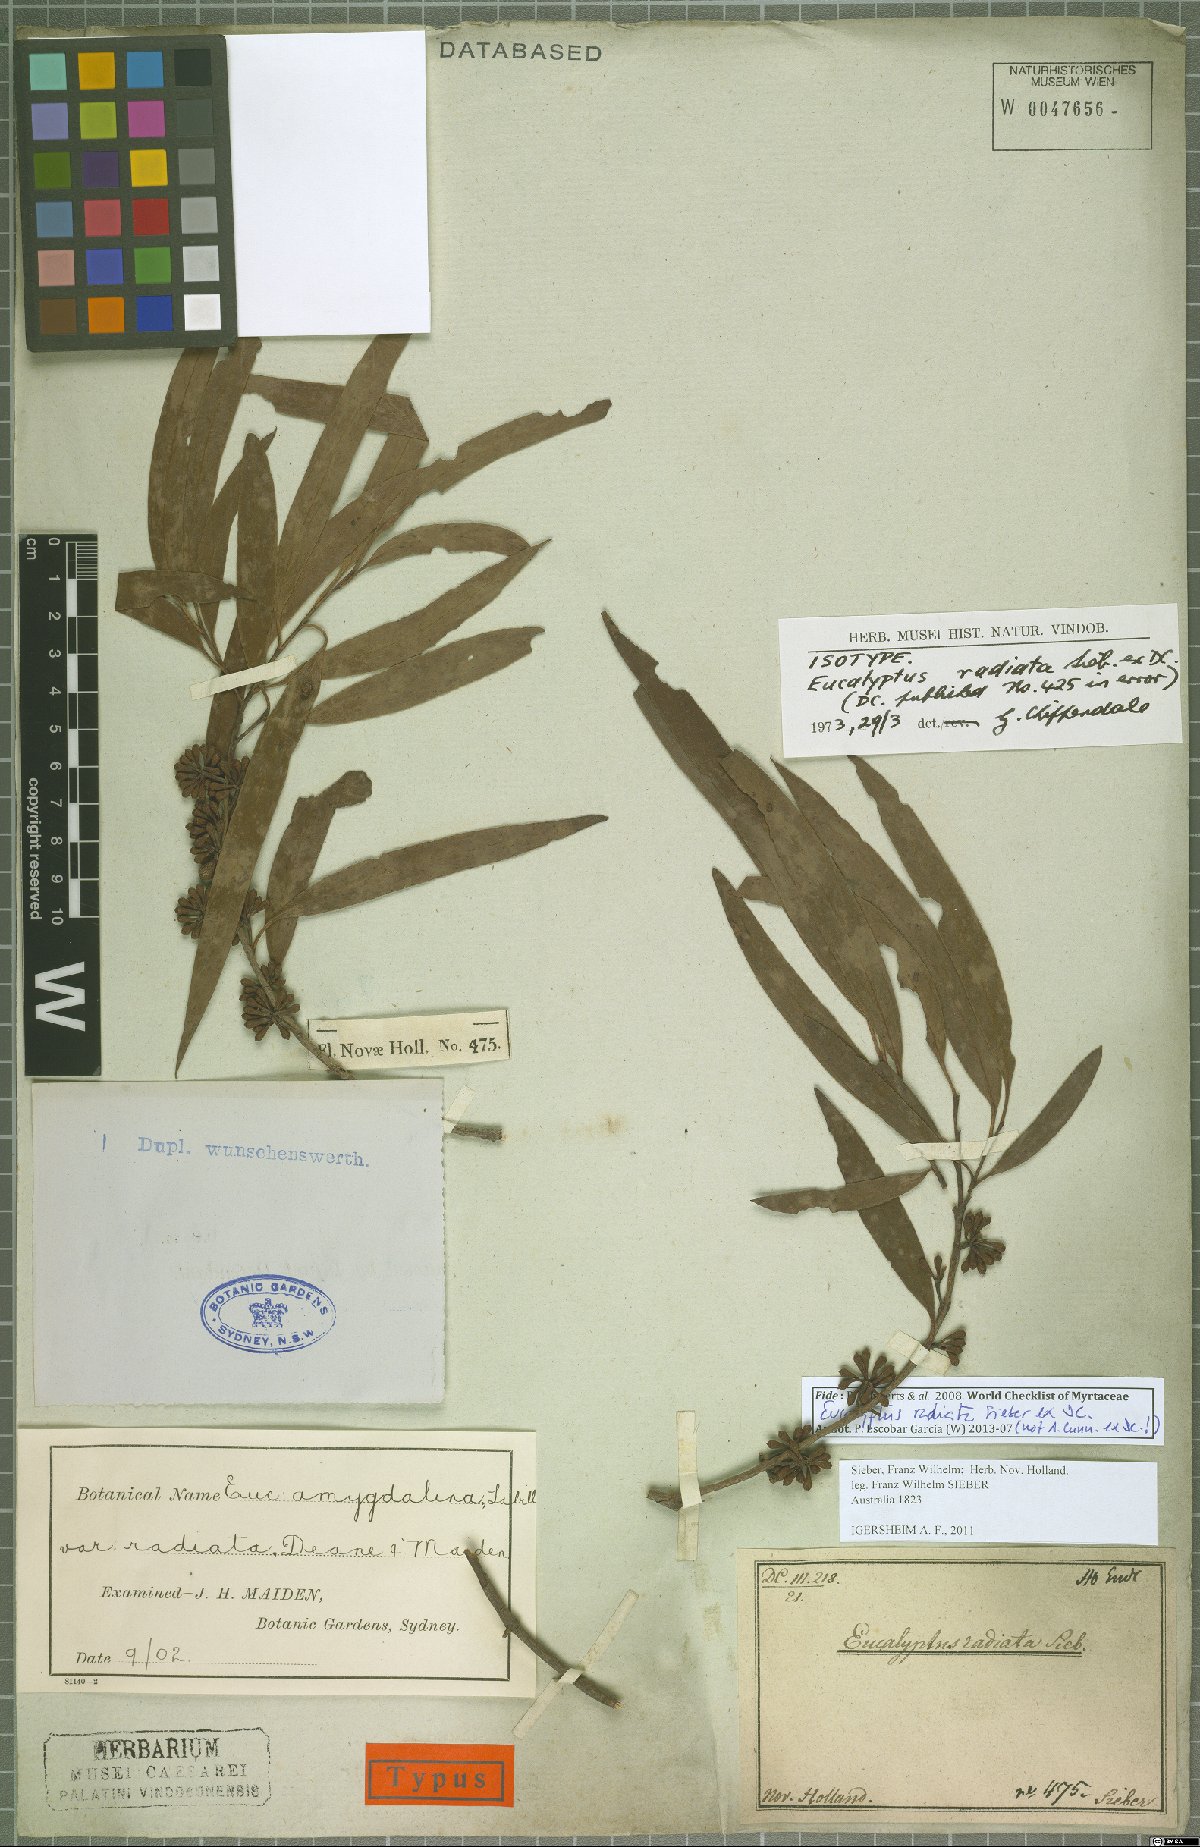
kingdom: Plantae
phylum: Tracheophyta
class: Magnoliopsida
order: Myrtales
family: Myrtaceae
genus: Eucalyptus
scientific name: Eucalyptus radiata
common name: Narrow-leaved-peppermint
